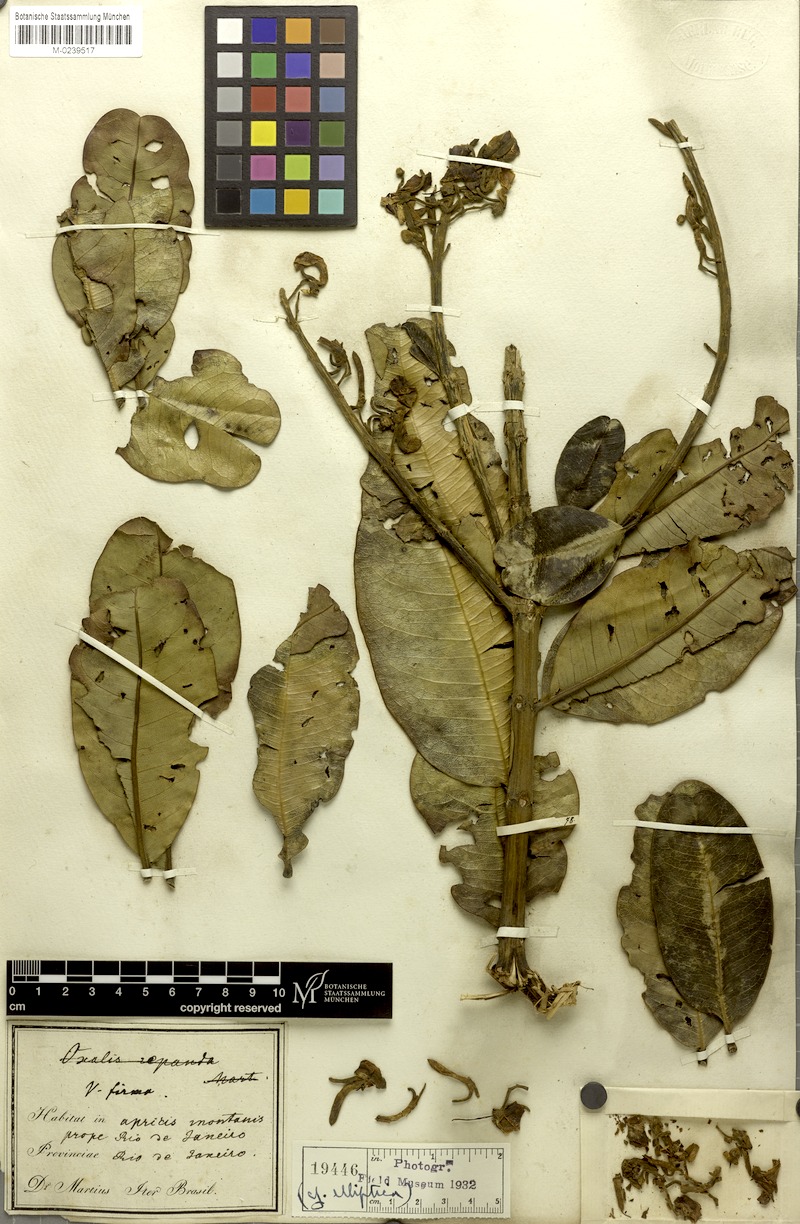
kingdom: Plantae
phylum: Tracheophyta
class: Magnoliopsida
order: Myrtales
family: Vochysiaceae
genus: Vochysia
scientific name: Vochysia elliptica
